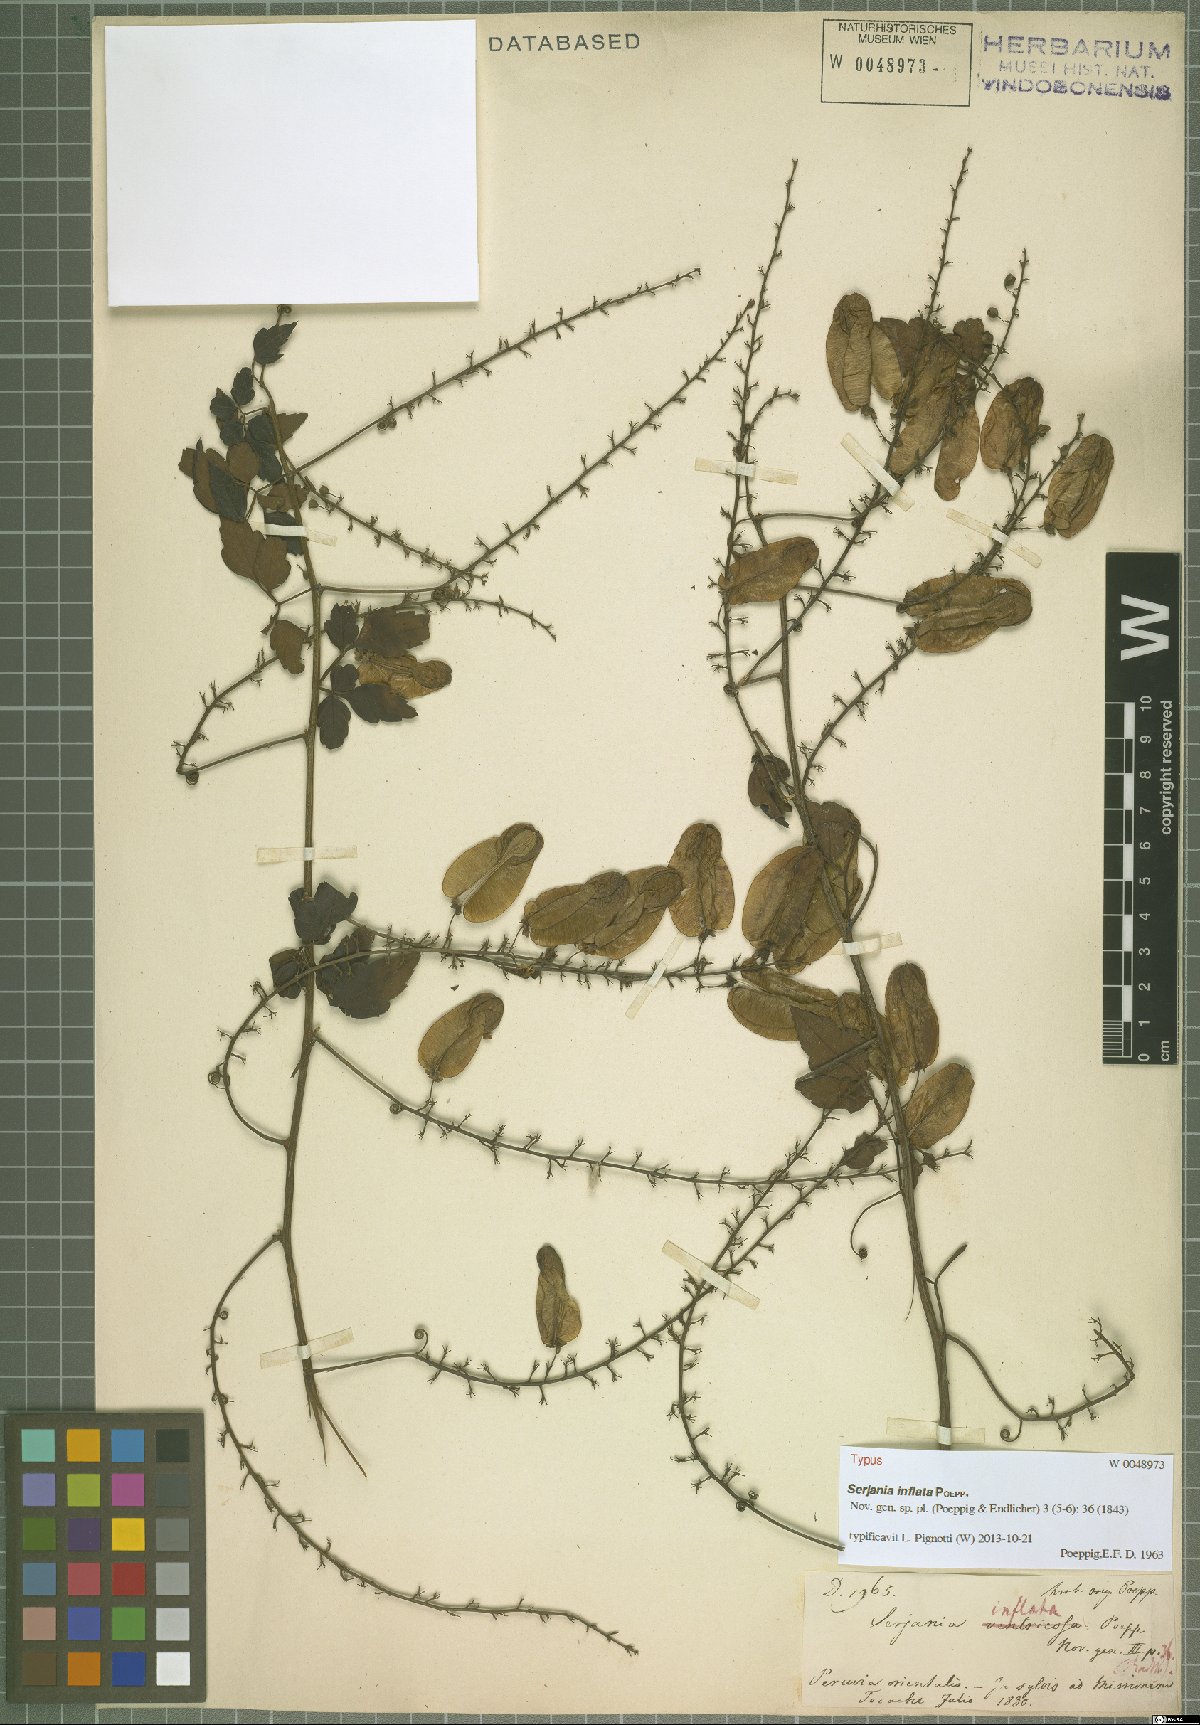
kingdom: Plantae
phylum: Tracheophyta
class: Magnoliopsida
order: Sapindales
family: Sapindaceae
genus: Serjania
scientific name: Serjania inflata
